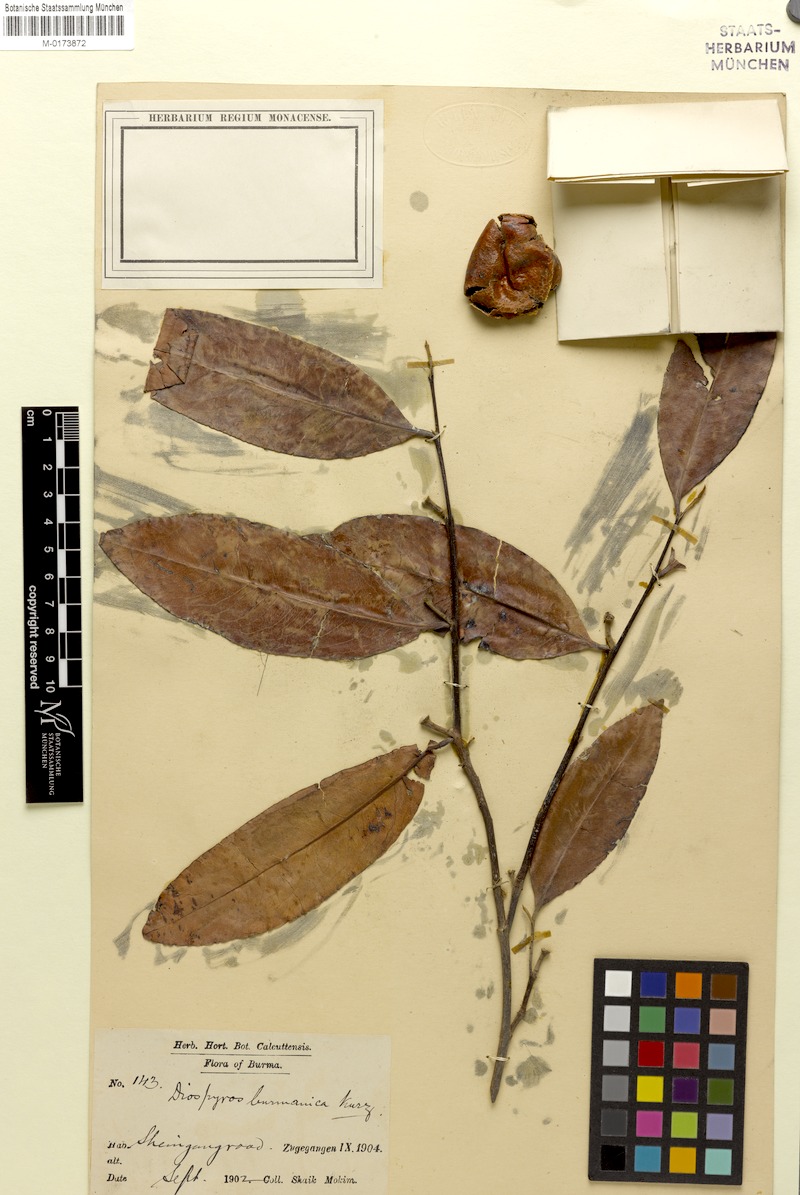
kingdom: Plantae
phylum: Tracheophyta
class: Magnoliopsida
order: Ericales
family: Ebenaceae
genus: Diospyros
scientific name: Diospyros burmanica
